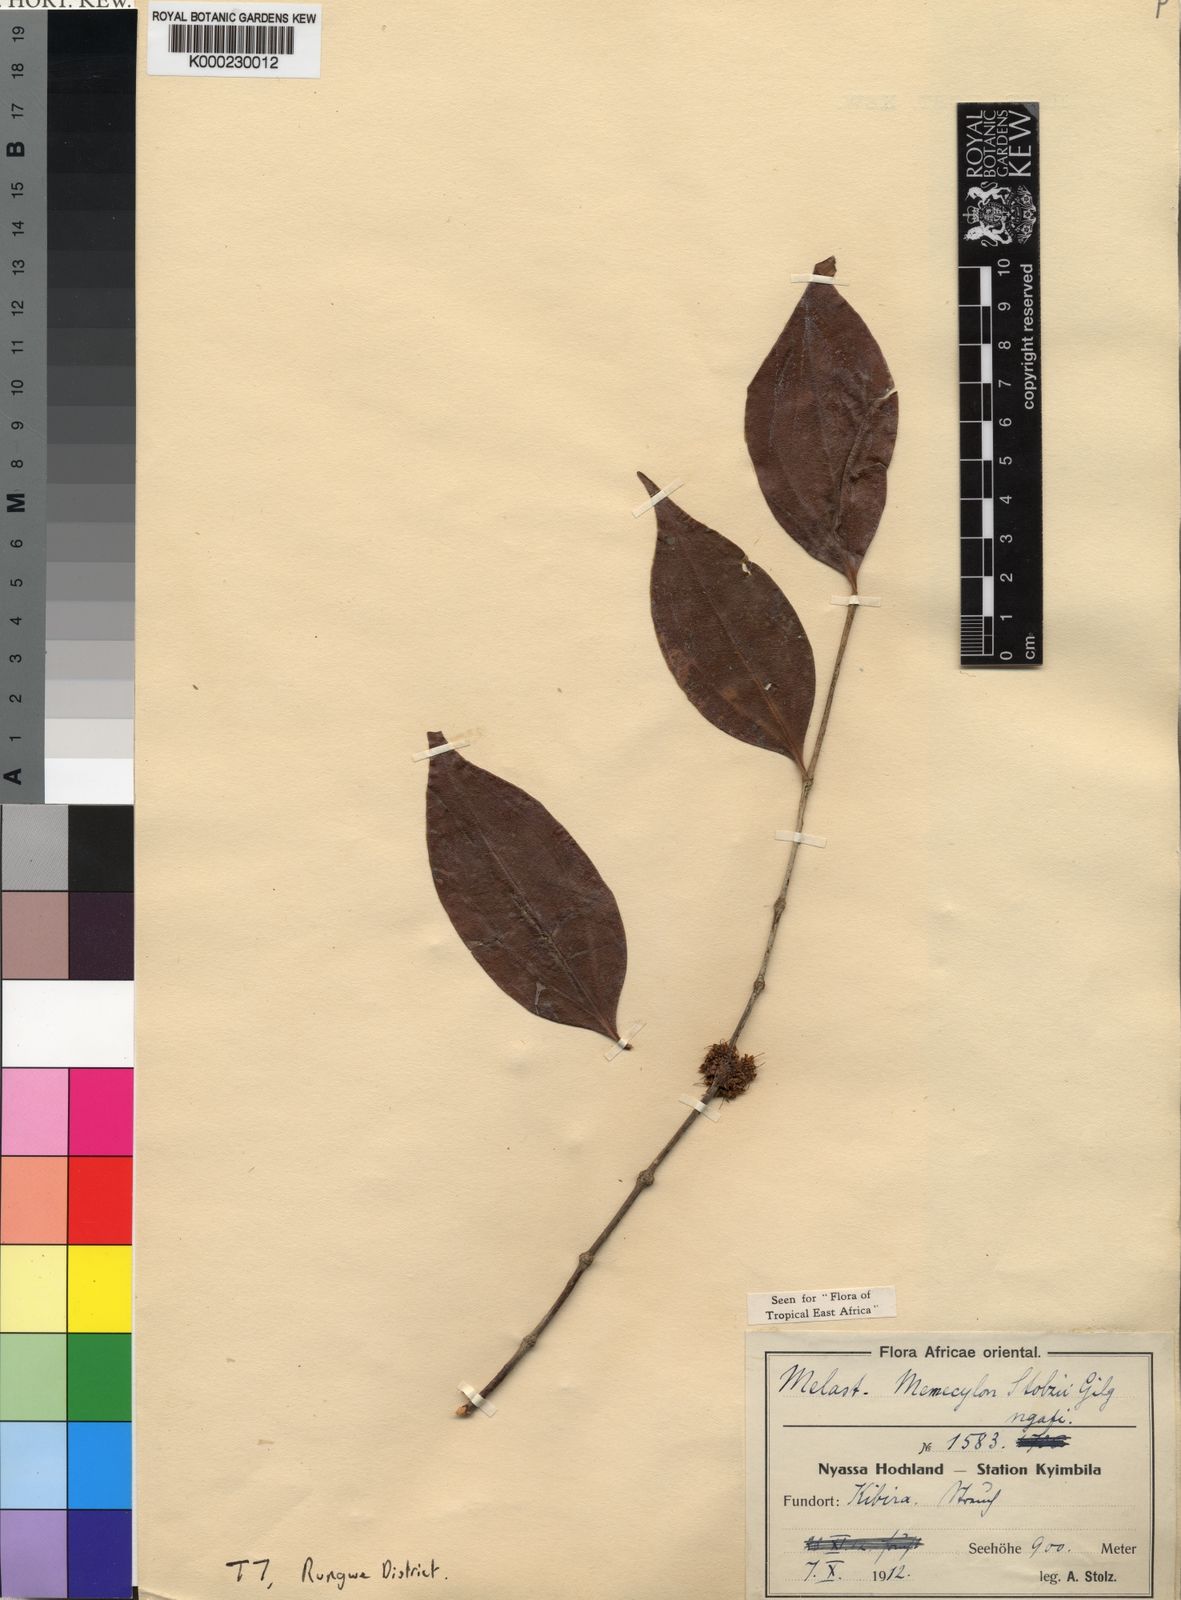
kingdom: Plantae
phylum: Tracheophyta
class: Magnoliopsida
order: Myrtales
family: Melastomataceae
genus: Warneckea
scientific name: Warneckea
